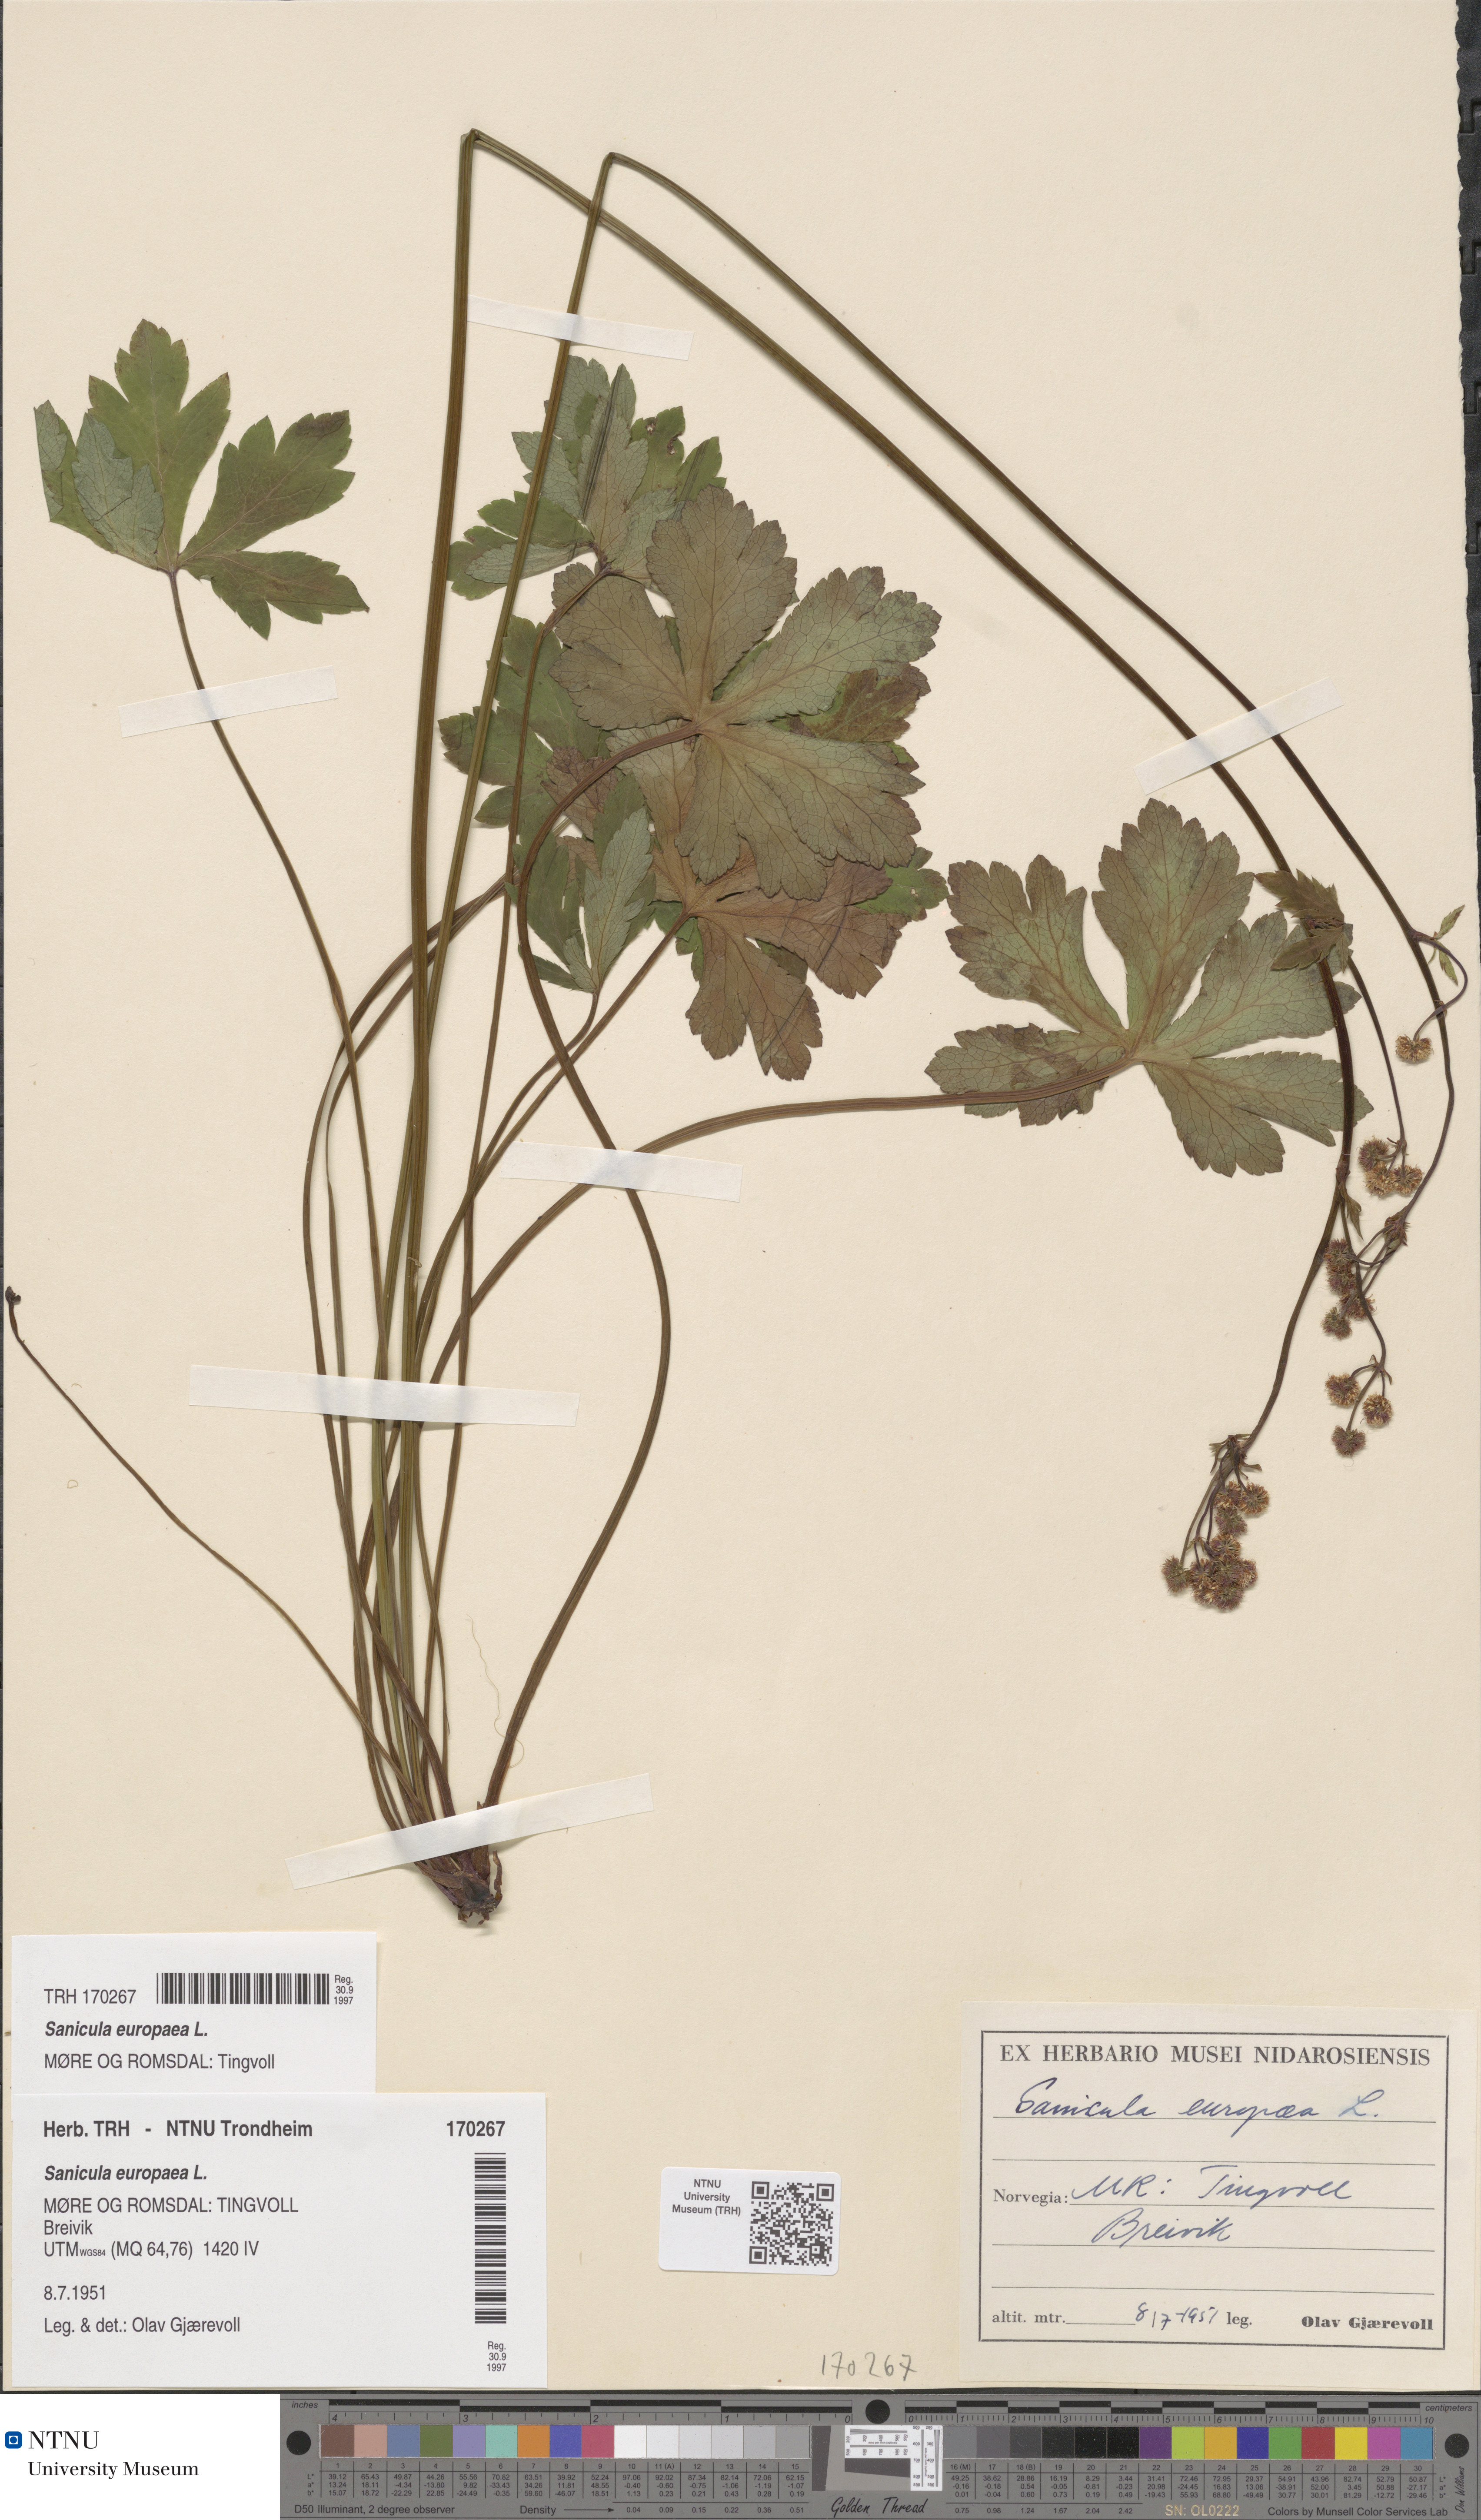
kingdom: Plantae
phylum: Tracheophyta
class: Magnoliopsida
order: Apiales
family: Apiaceae
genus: Sanicula
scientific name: Sanicula europaea
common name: Sanicle
